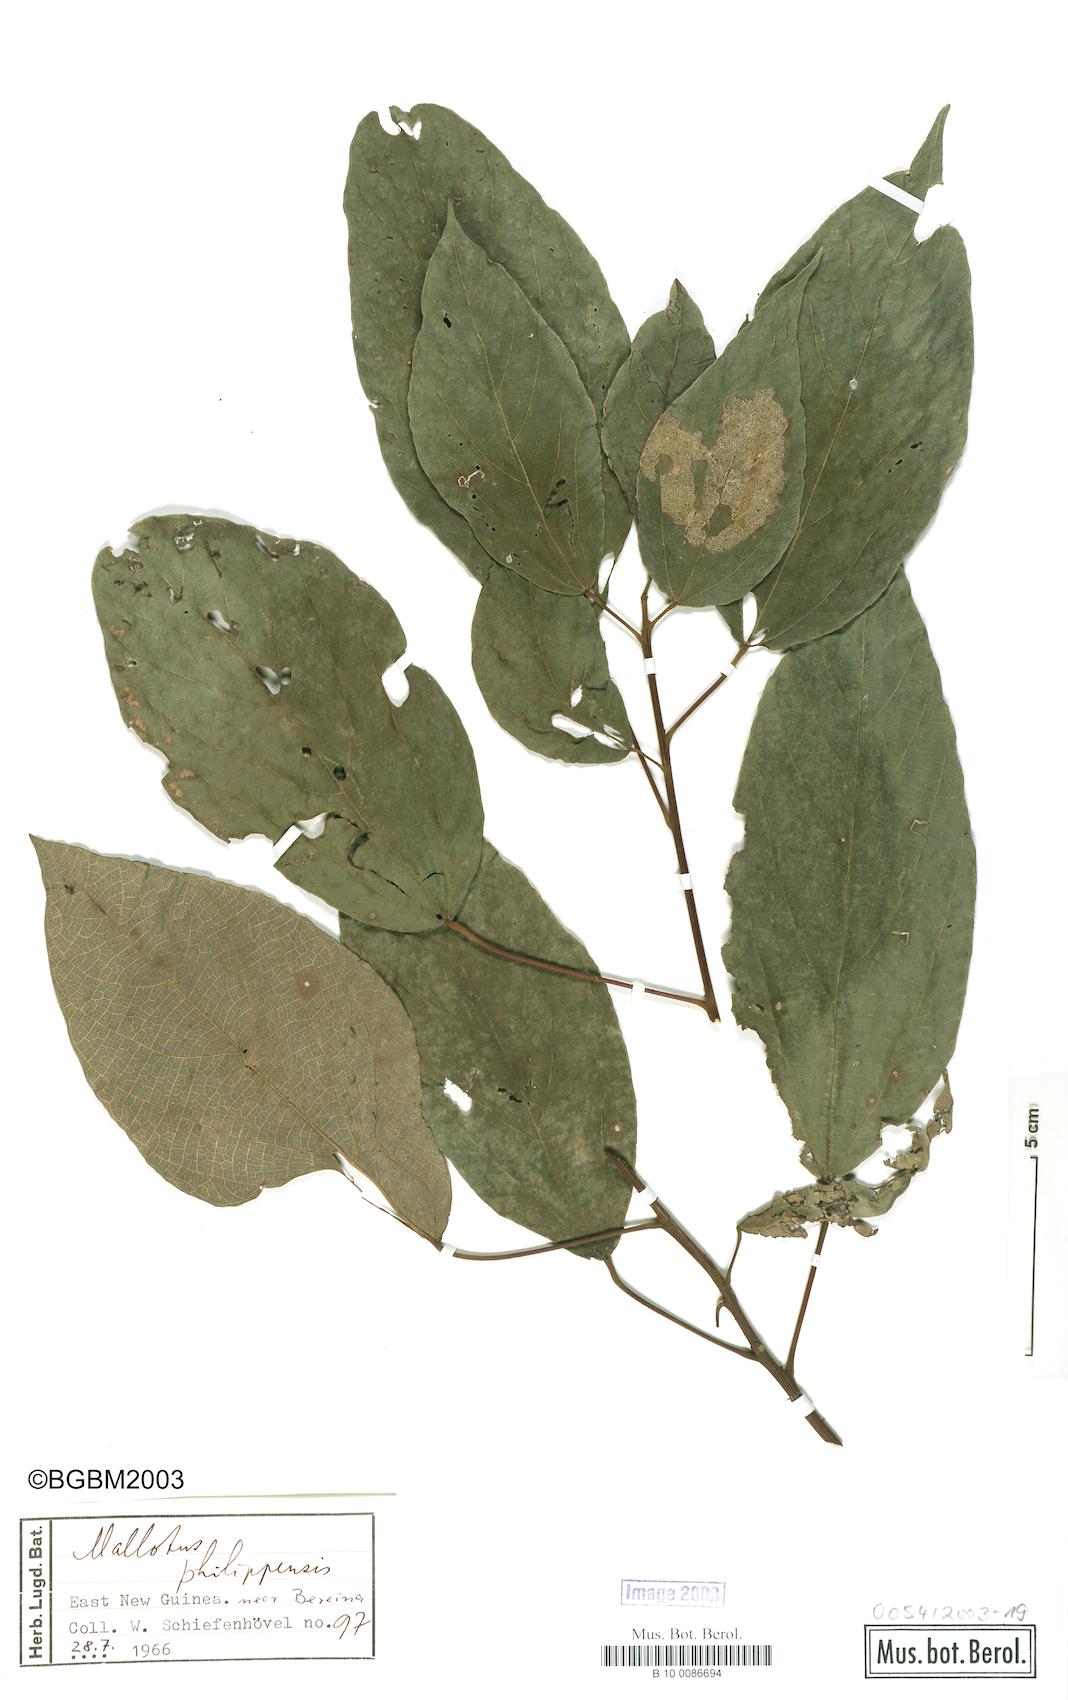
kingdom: Plantae
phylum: Tracheophyta
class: Magnoliopsida
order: Malpighiales
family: Euphorbiaceae
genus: Mallotus
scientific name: Mallotus philippensis
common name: Kamala tree
